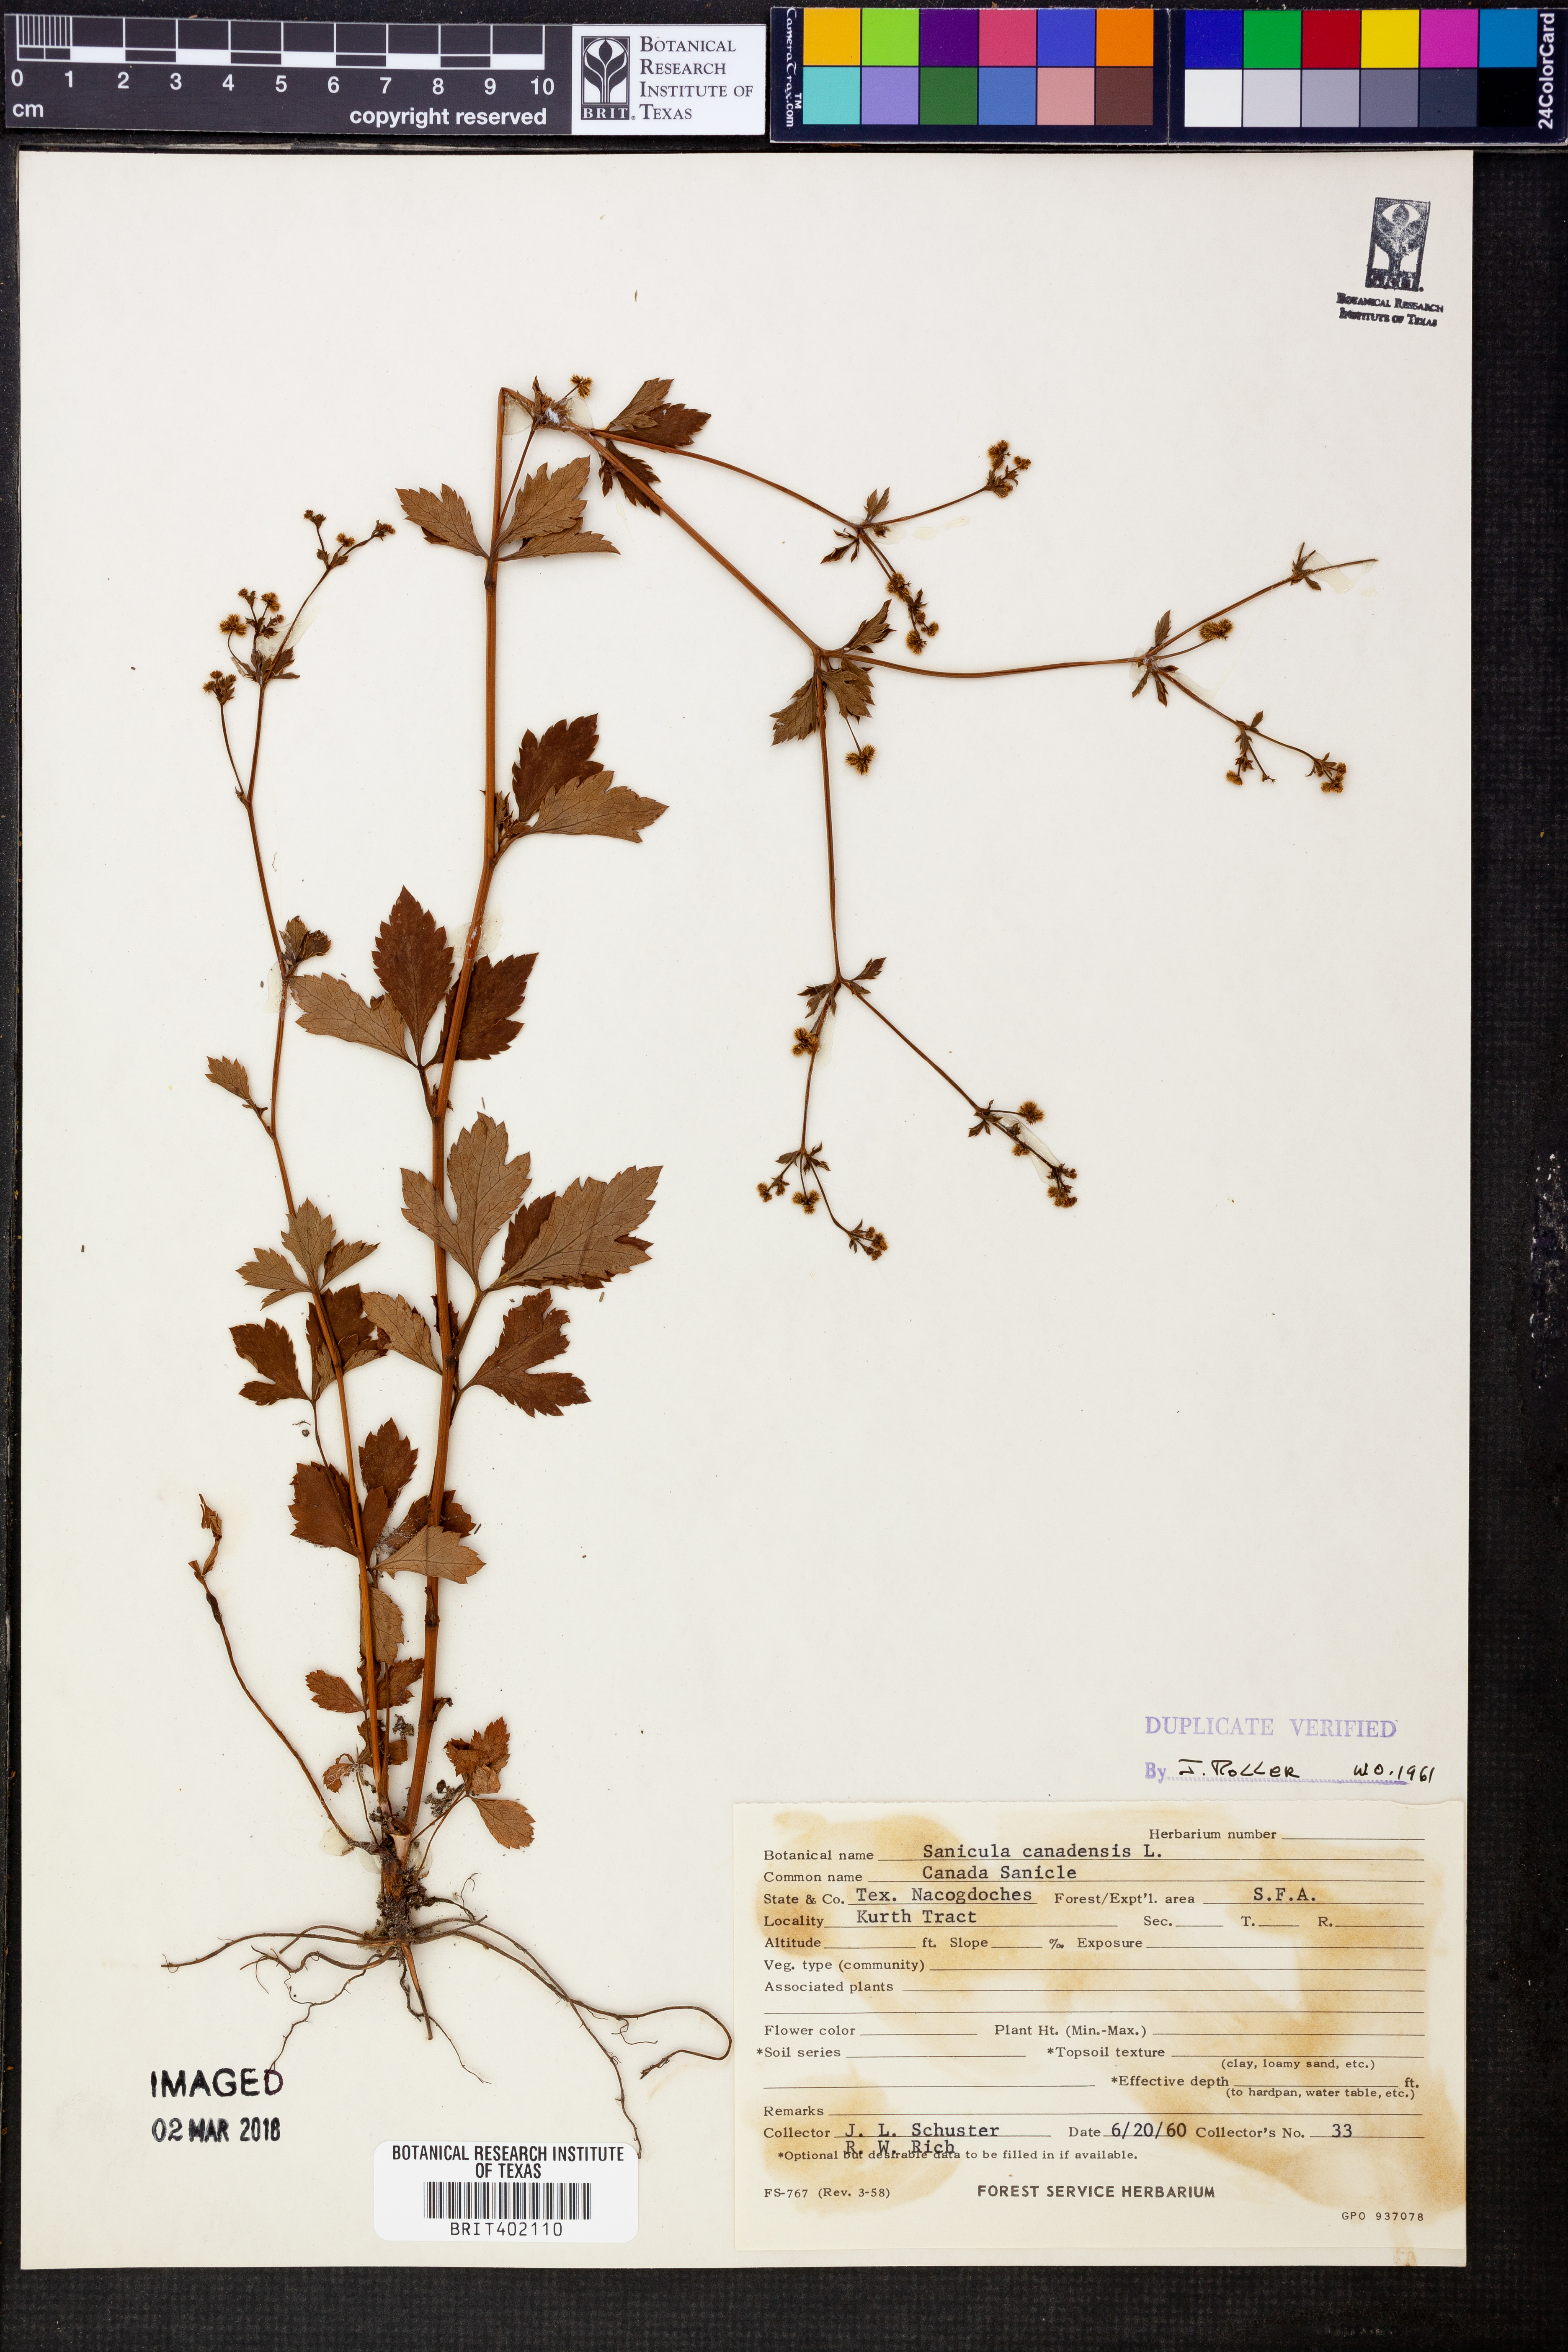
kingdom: Plantae
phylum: Tracheophyta
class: Magnoliopsida
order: Apiales
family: Apiaceae
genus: Sanicula
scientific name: Sanicula canadensis
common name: Canada sanicle
